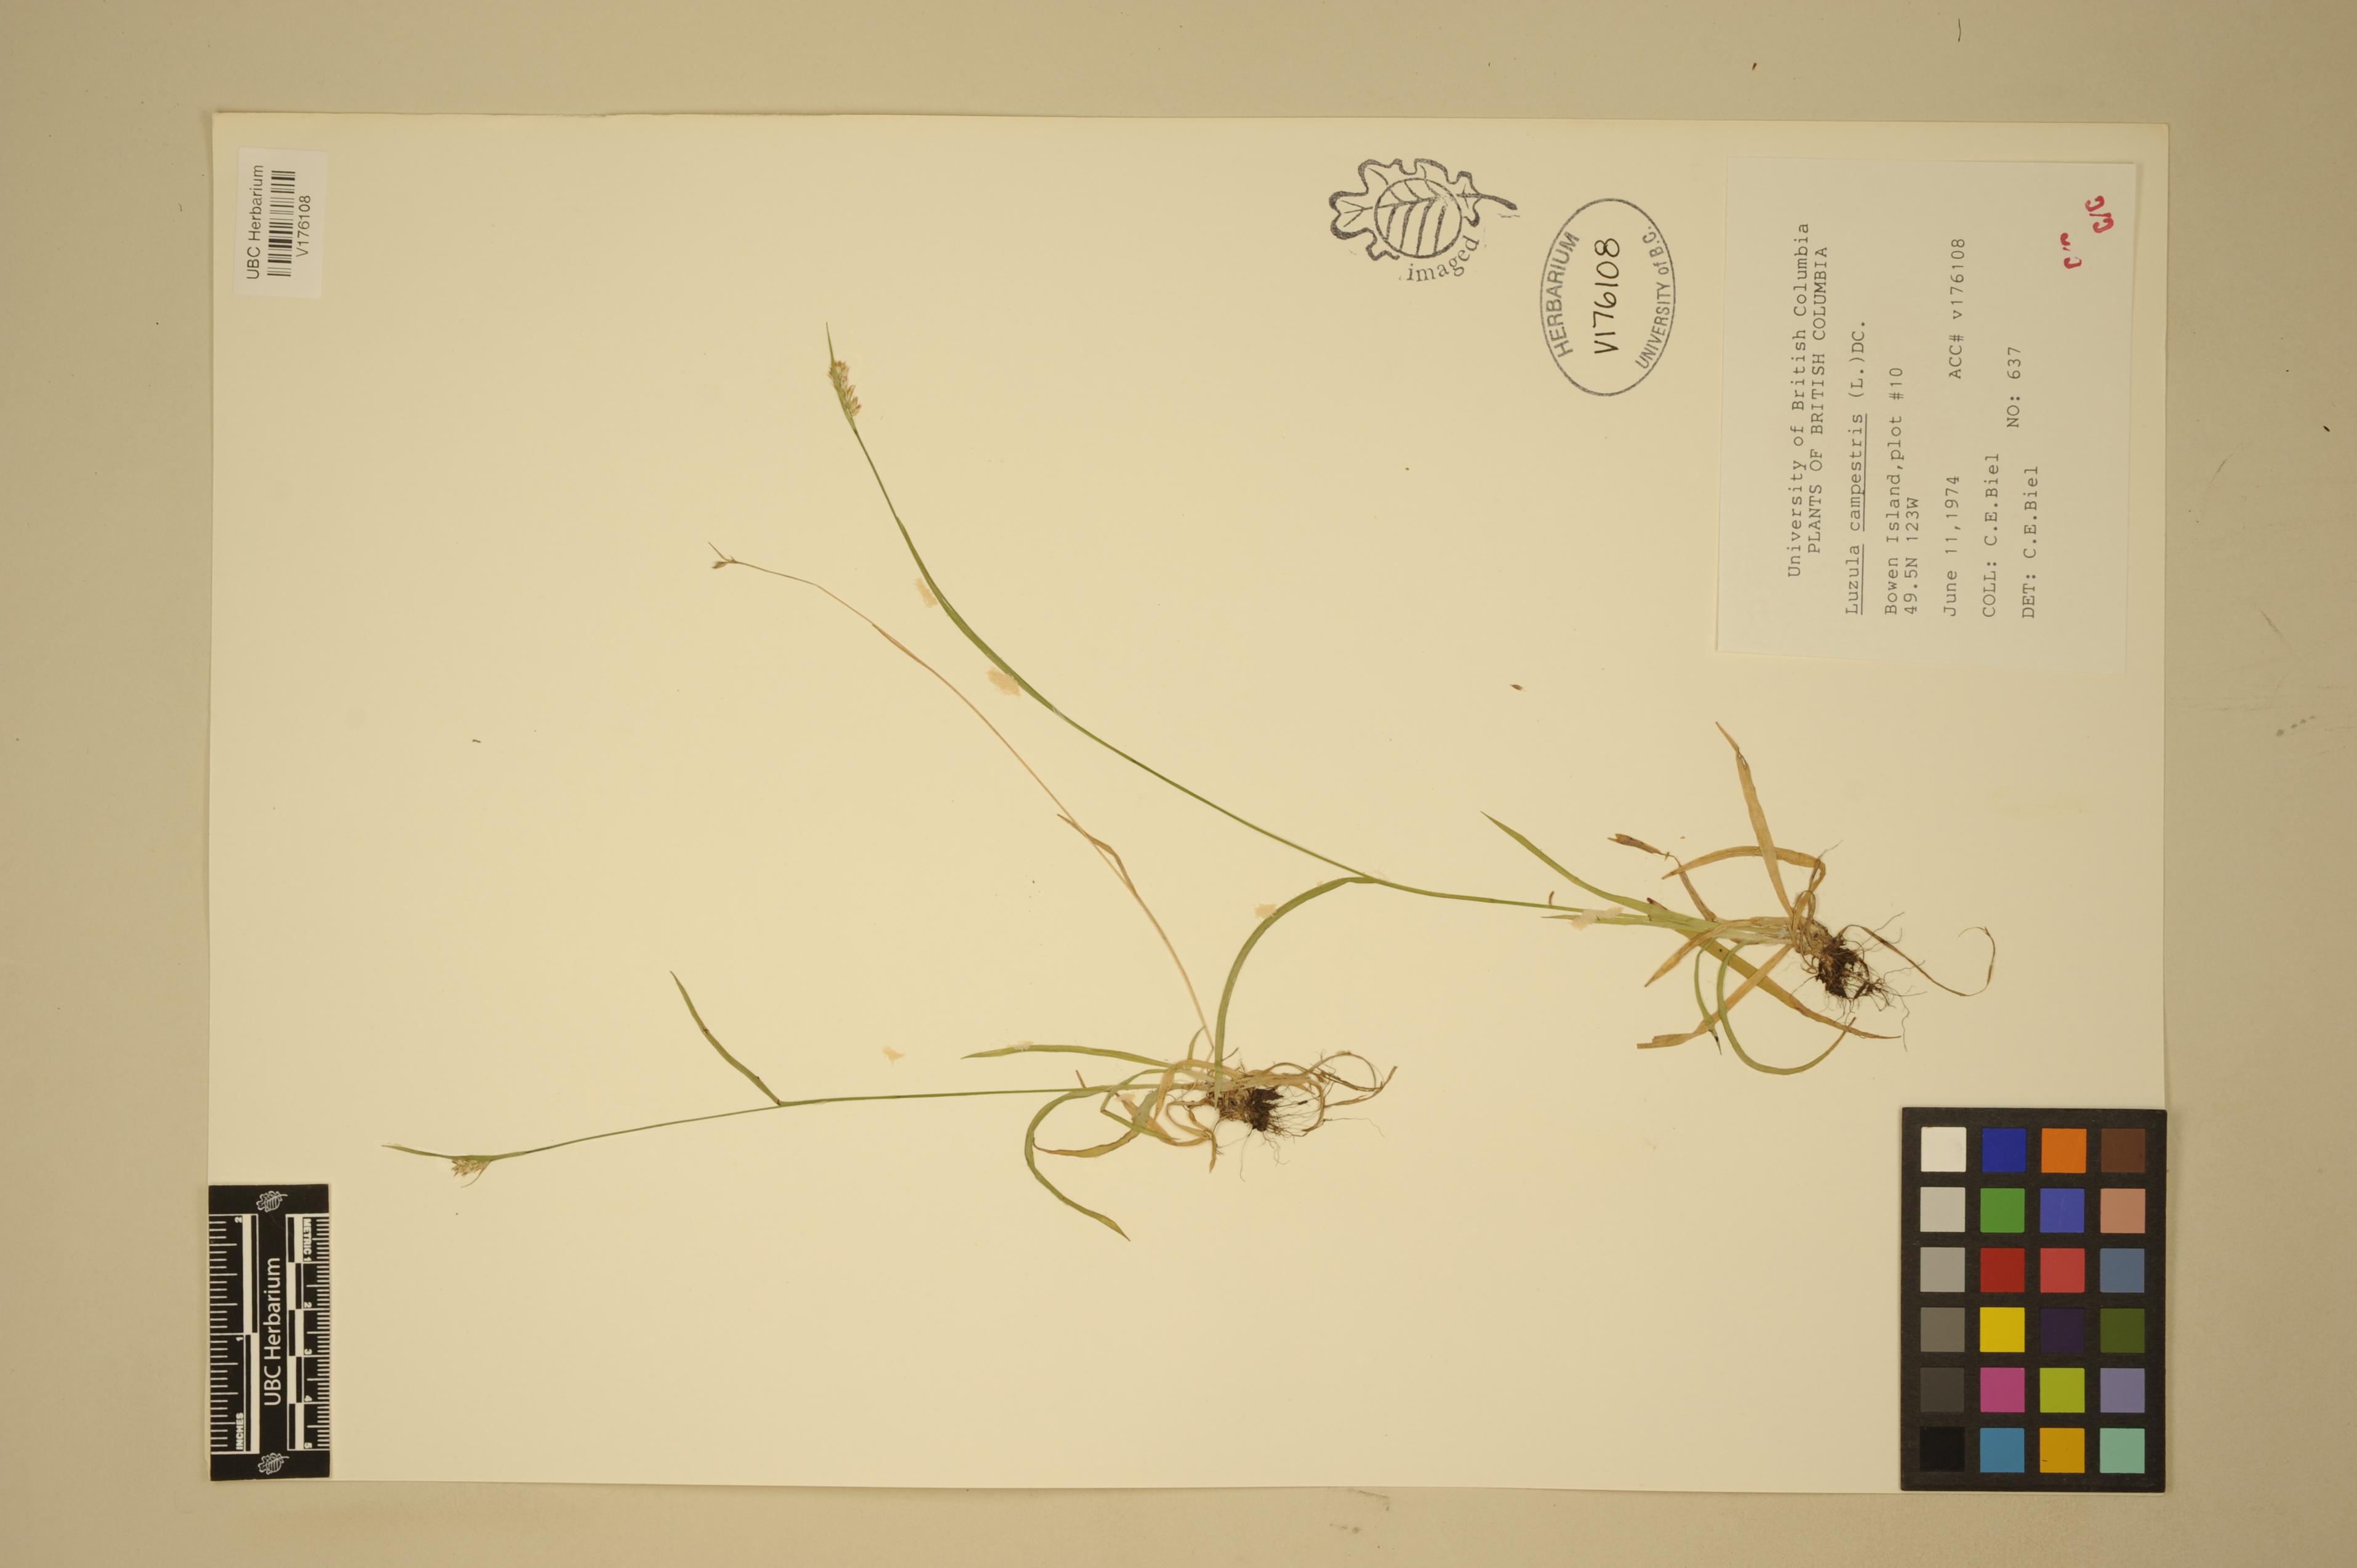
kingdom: Plantae
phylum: Tracheophyta
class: Liliopsida
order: Poales
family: Juncaceae
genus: Luzula
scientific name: Luzula comosa
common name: Pacific woodrush
